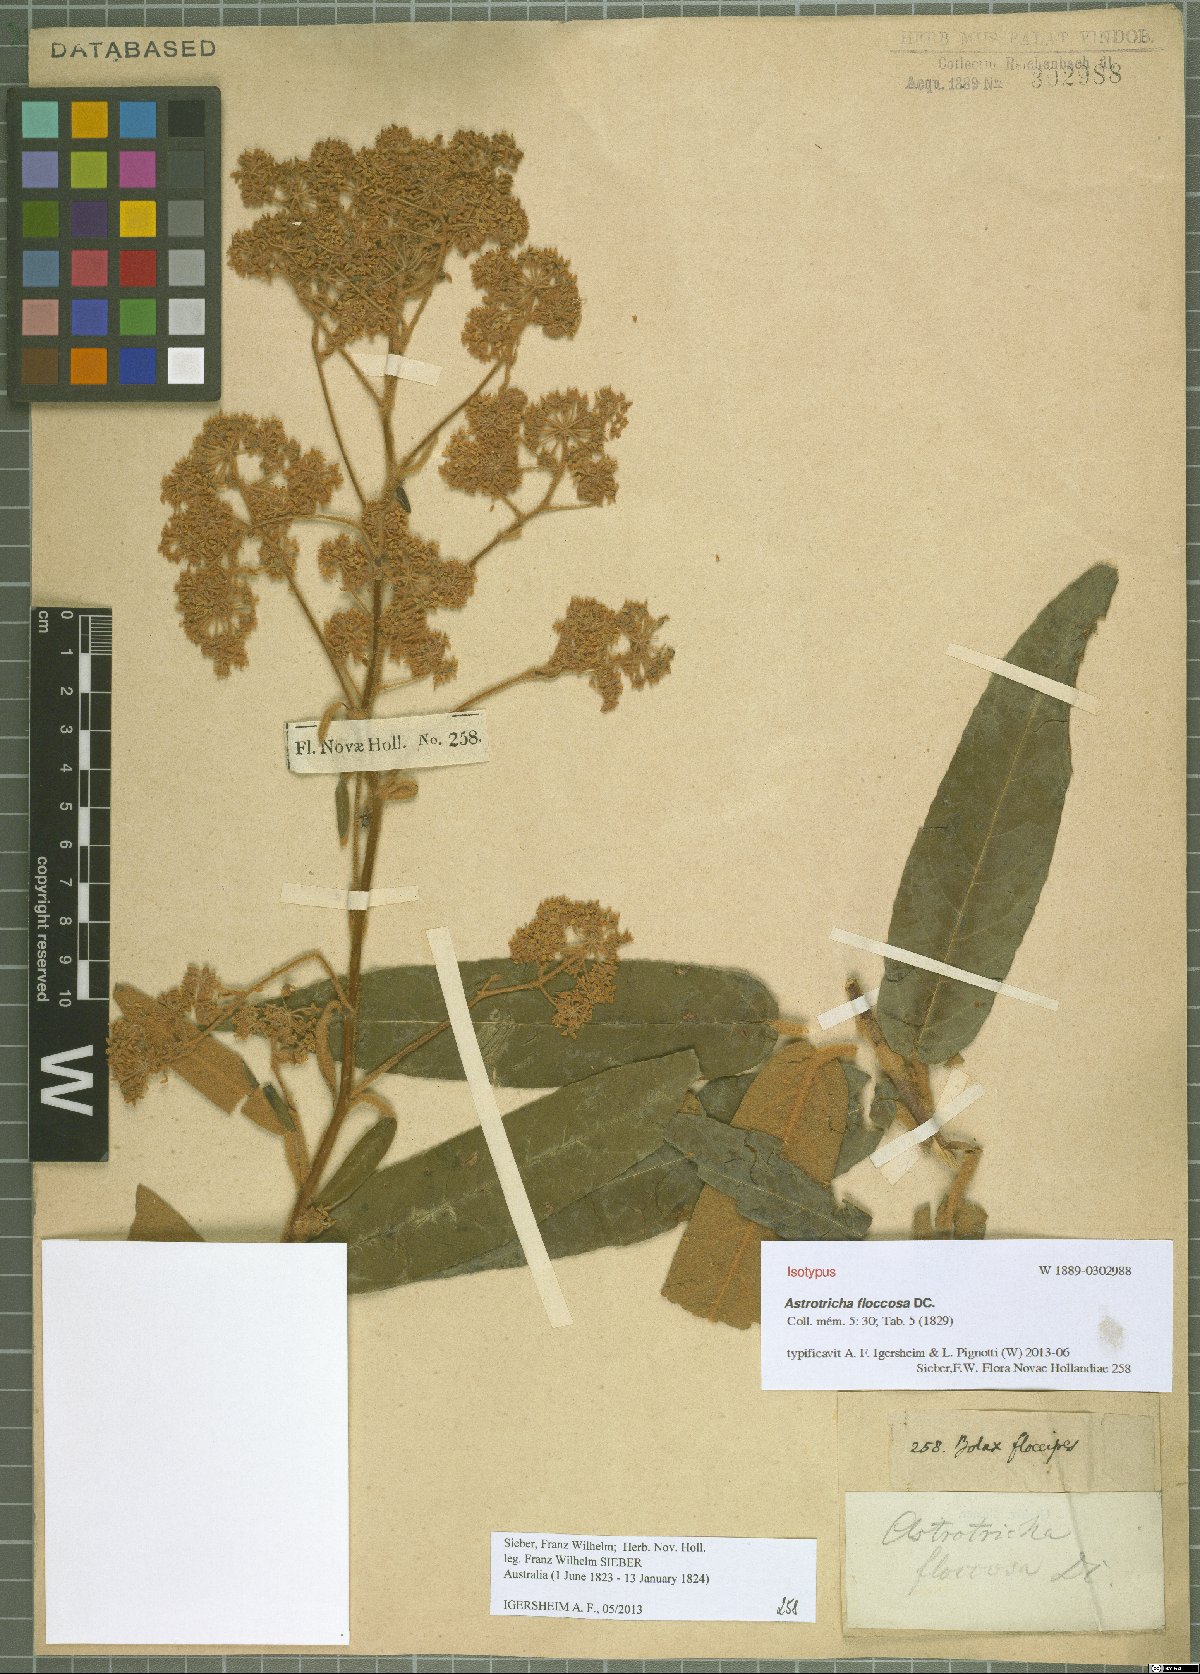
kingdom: Plantae
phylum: Tracheophyta
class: Magnoliopsida
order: Apiales
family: Araliaceae
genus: Astrotricha
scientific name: Astrotricha floccosa
